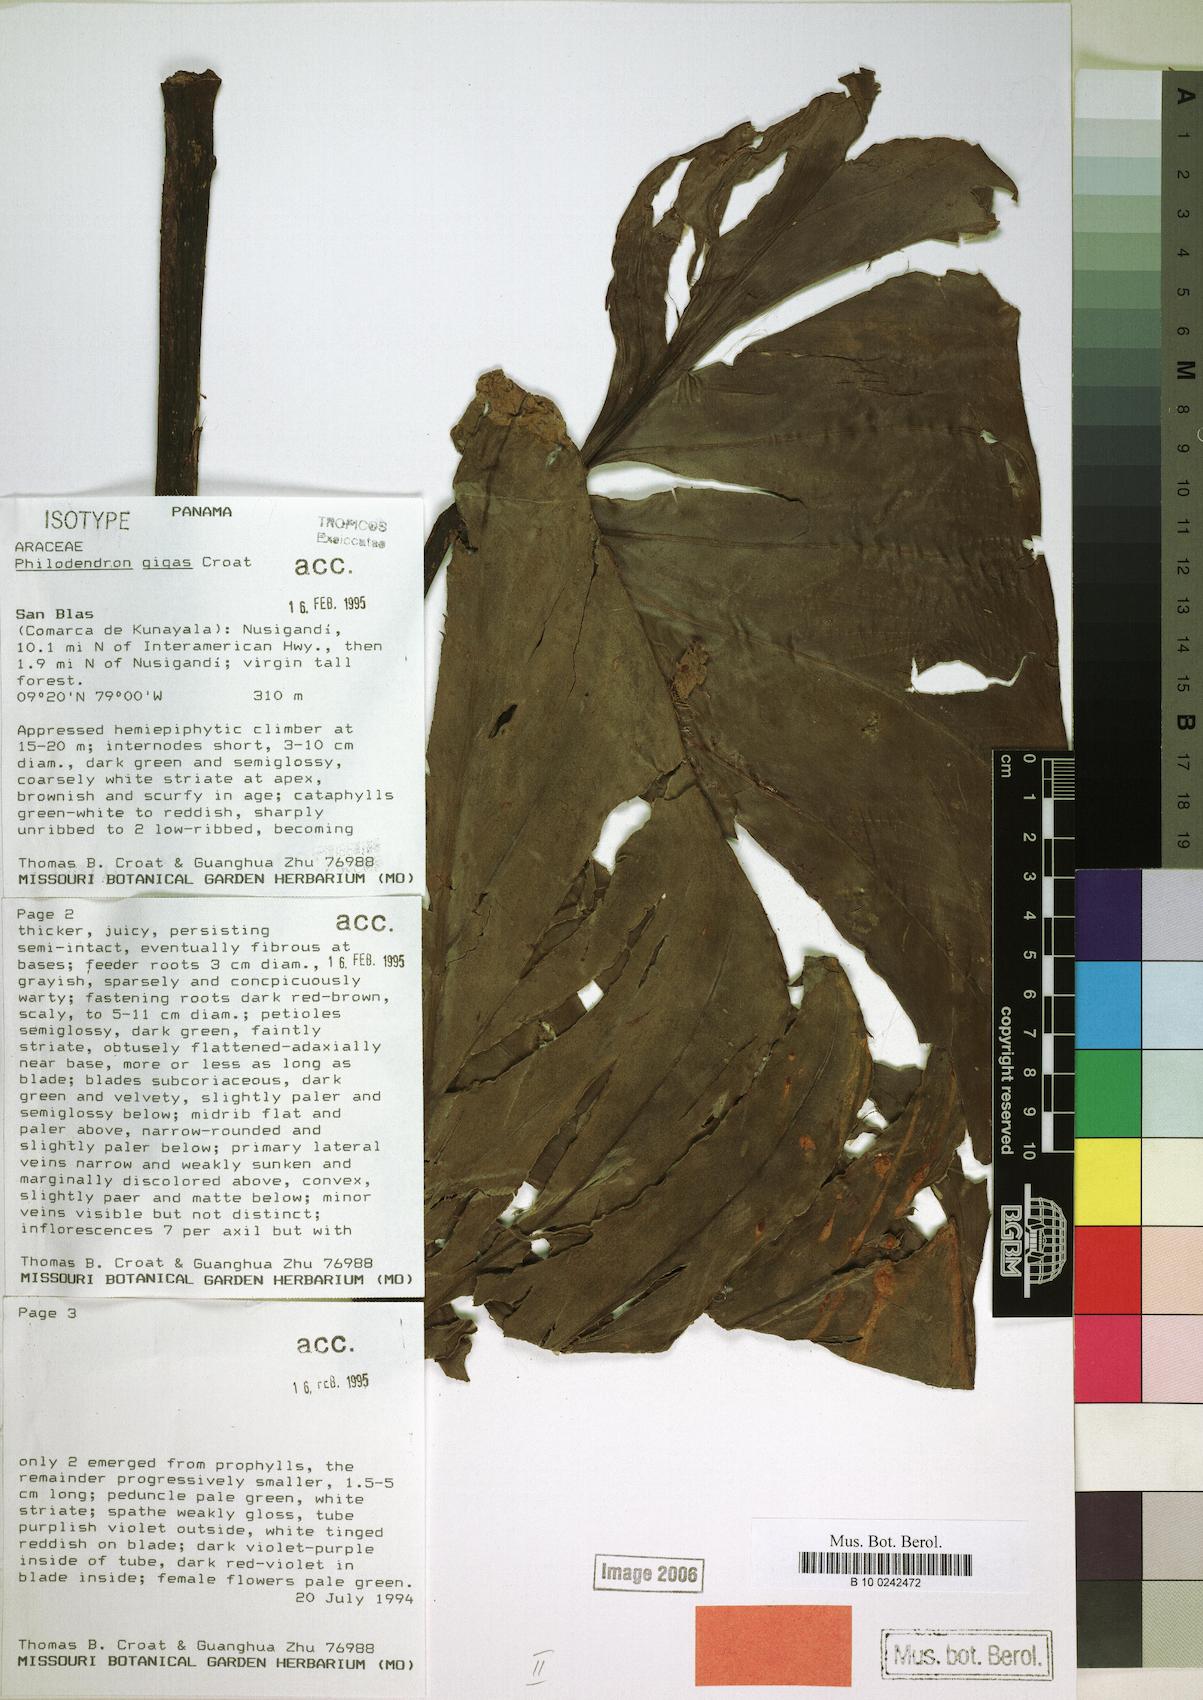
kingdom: Plantae
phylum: Tracheophyta
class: Liliopsida
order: Alismatales
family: Araceae
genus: Philodendron
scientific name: Philodendron gigas
